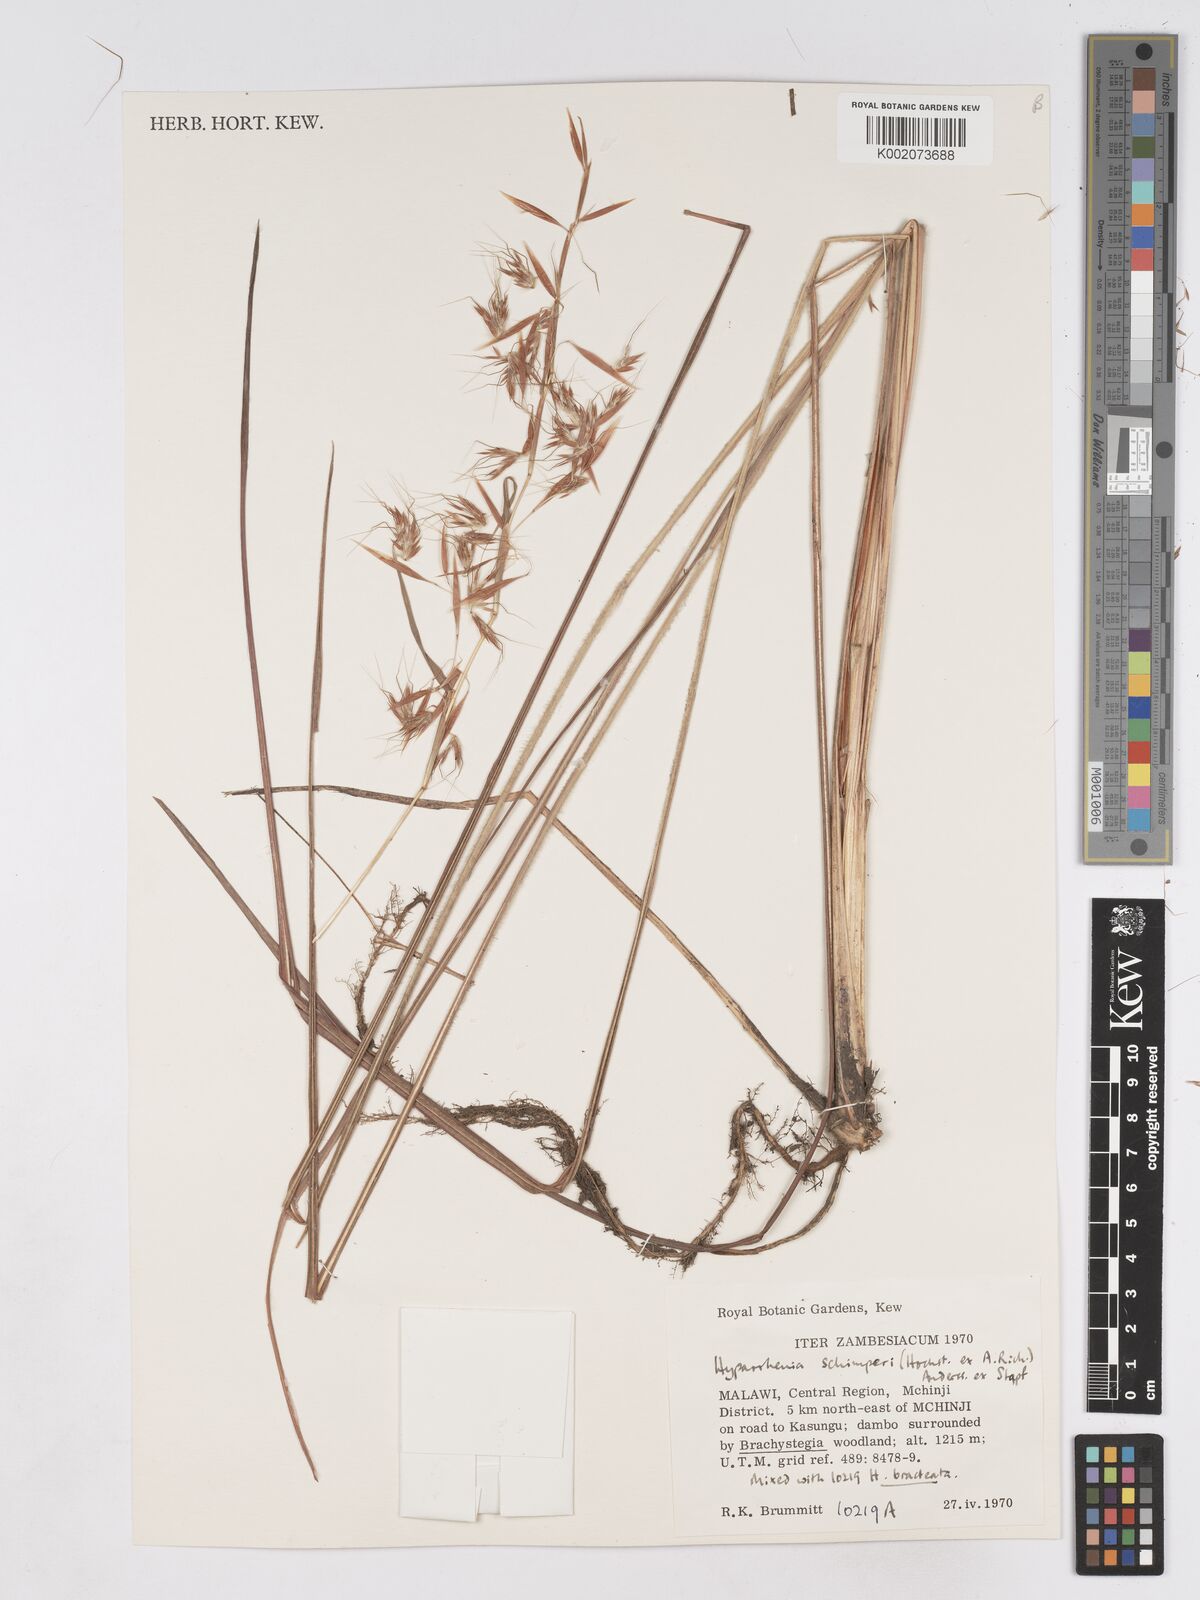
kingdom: Plantae
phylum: Tracheophyta
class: Liliopsida
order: Poales
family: Poaceae
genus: Hyparrhenia
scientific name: Hyparrhenia schimperi
